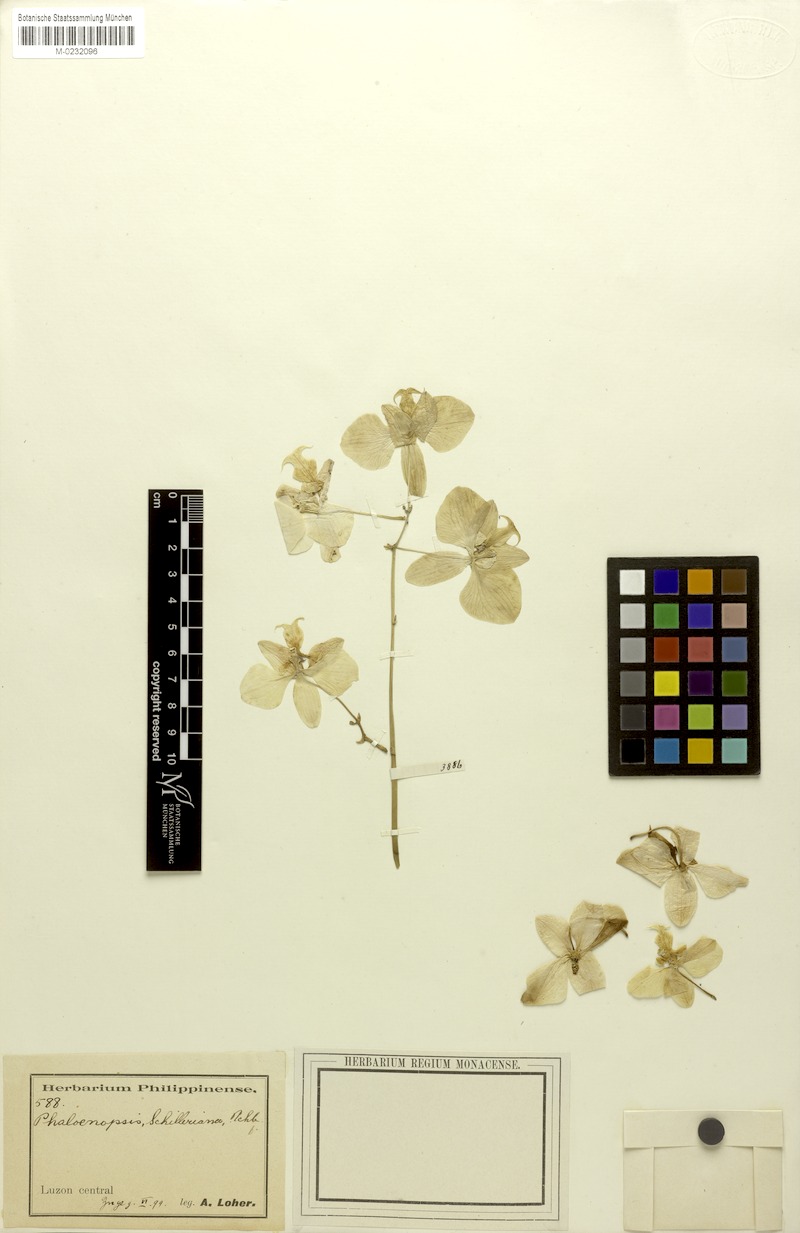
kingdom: Plantae
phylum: Tracheophyta
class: Liliopsida
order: Asparagales
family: Orchidaceae
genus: Phalaenopsis
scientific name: Phalaenopsis schilleriana
